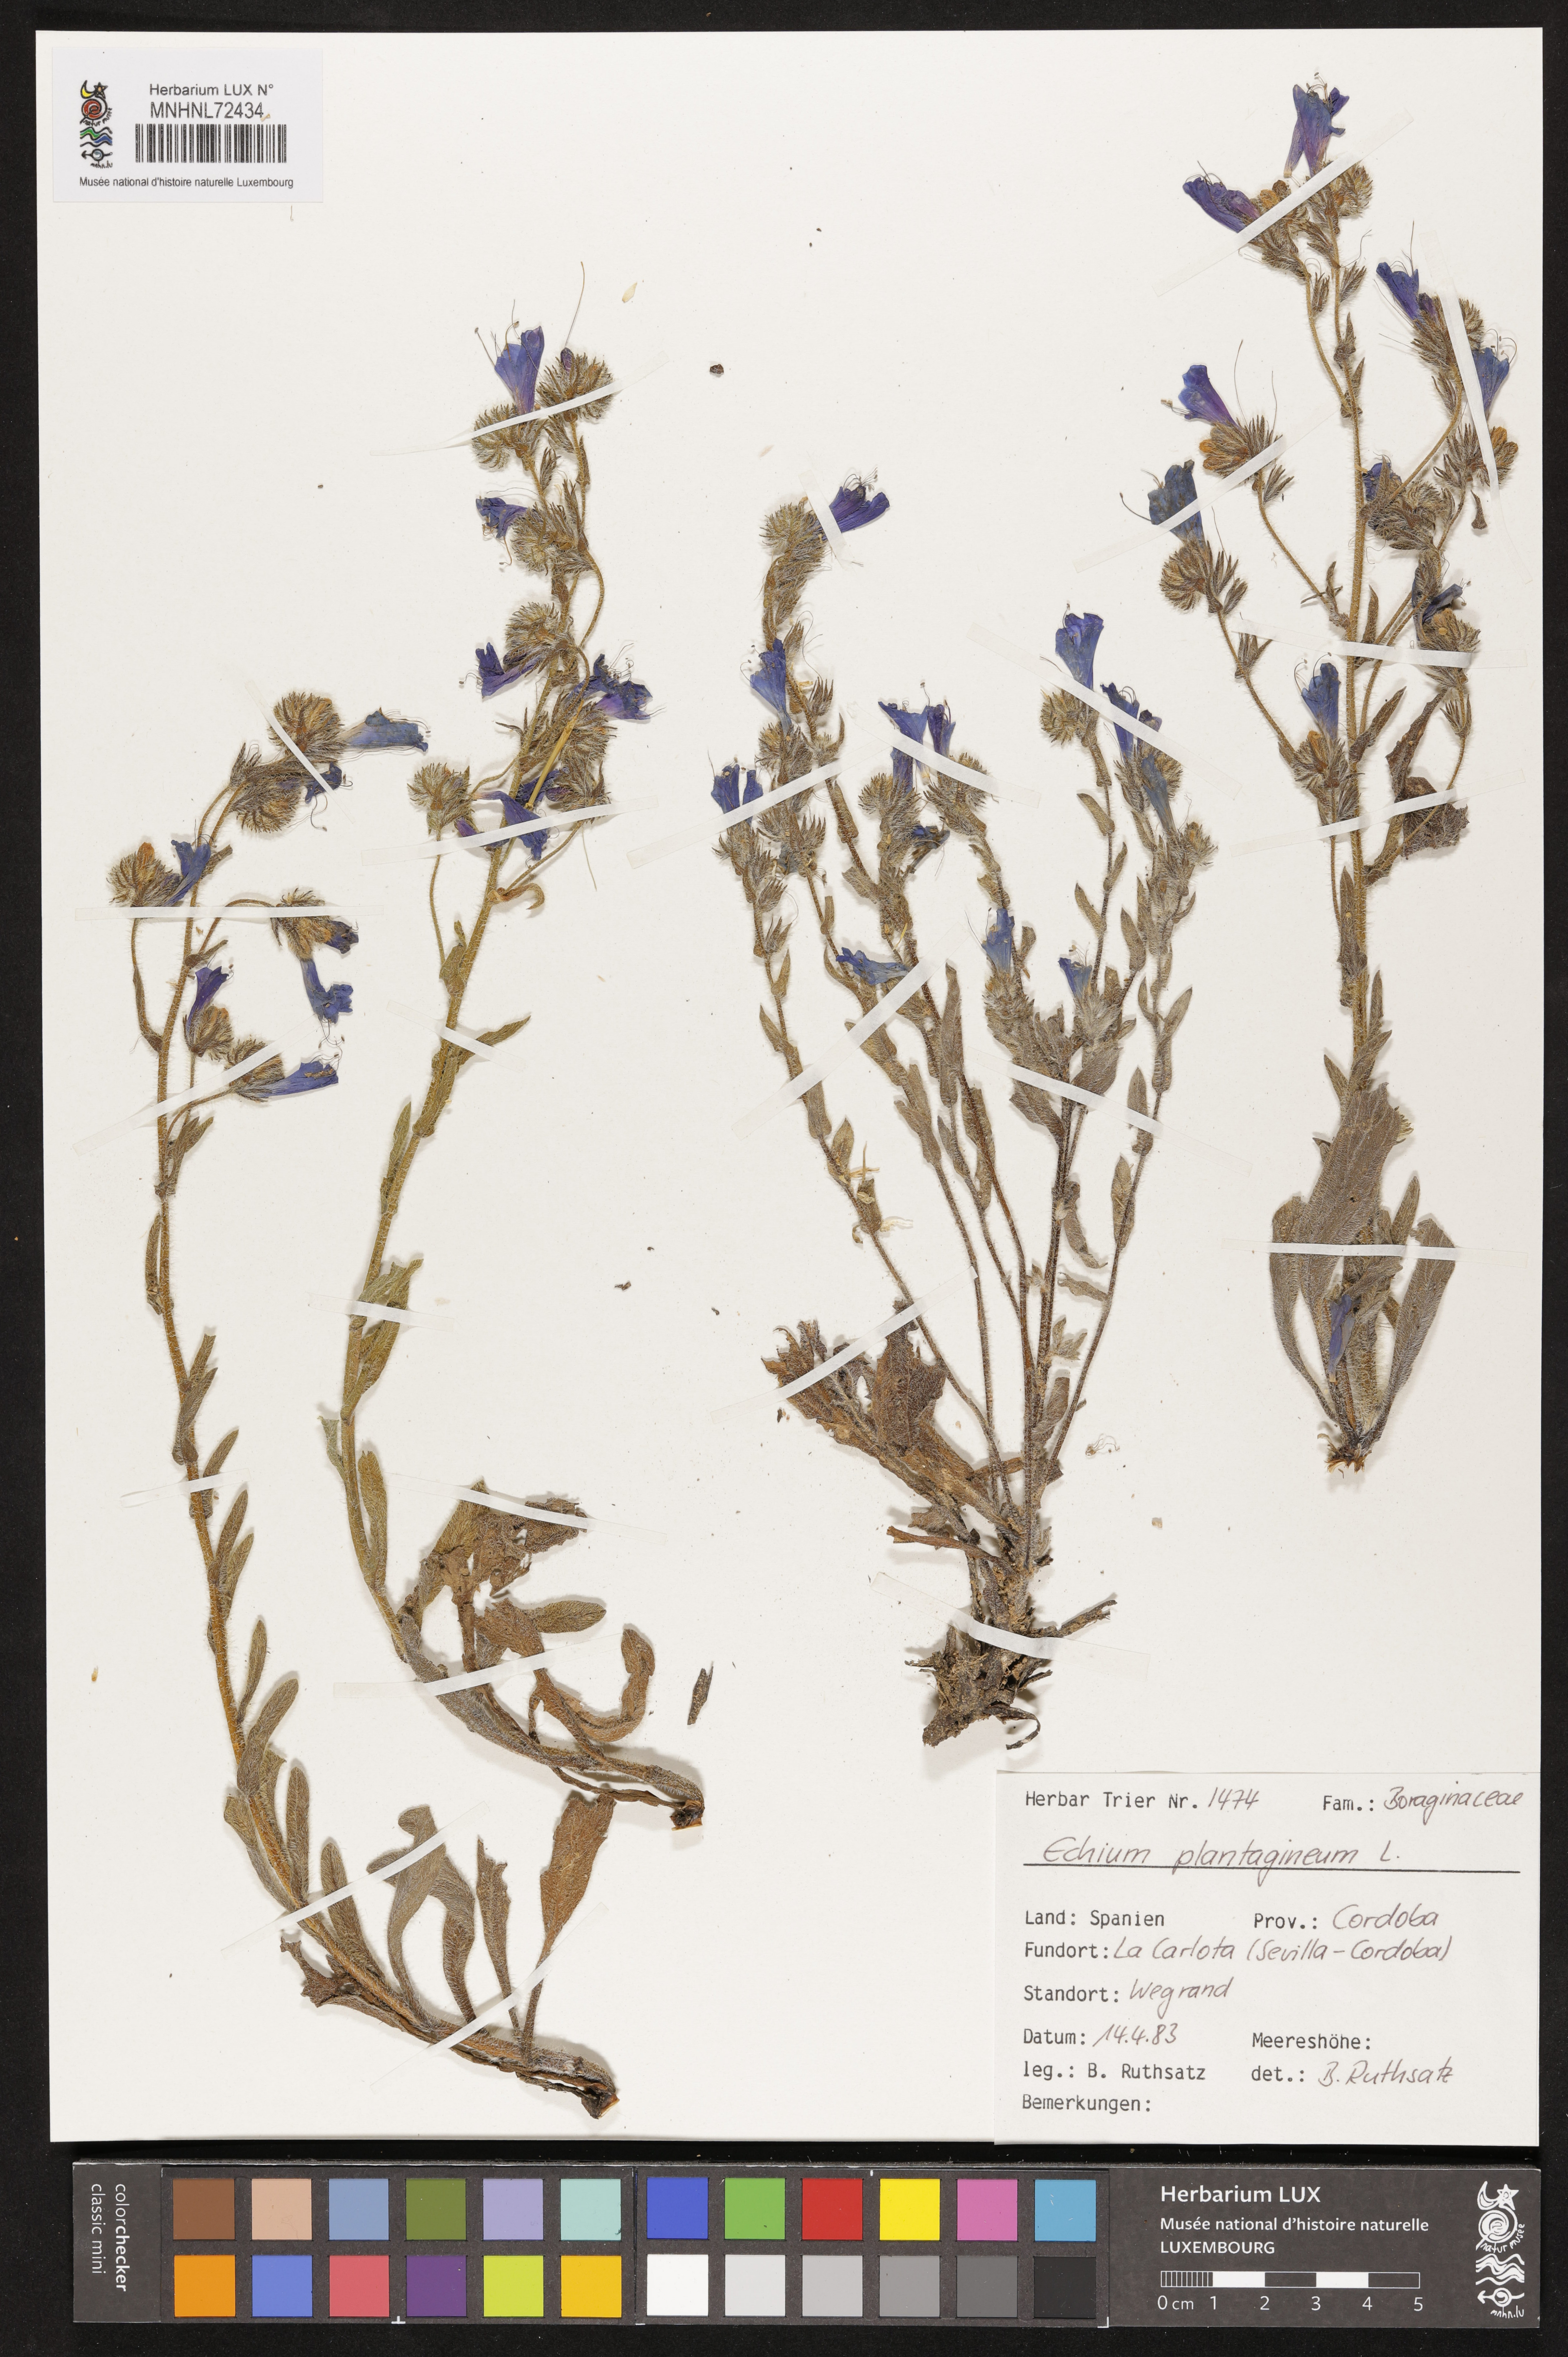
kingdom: Plantae
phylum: Tracheophyta
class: Magnoliopsida
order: Boraginales
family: Boraginaceae
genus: Echium
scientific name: Echium plantagineum
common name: Purple viper's-bugloss
